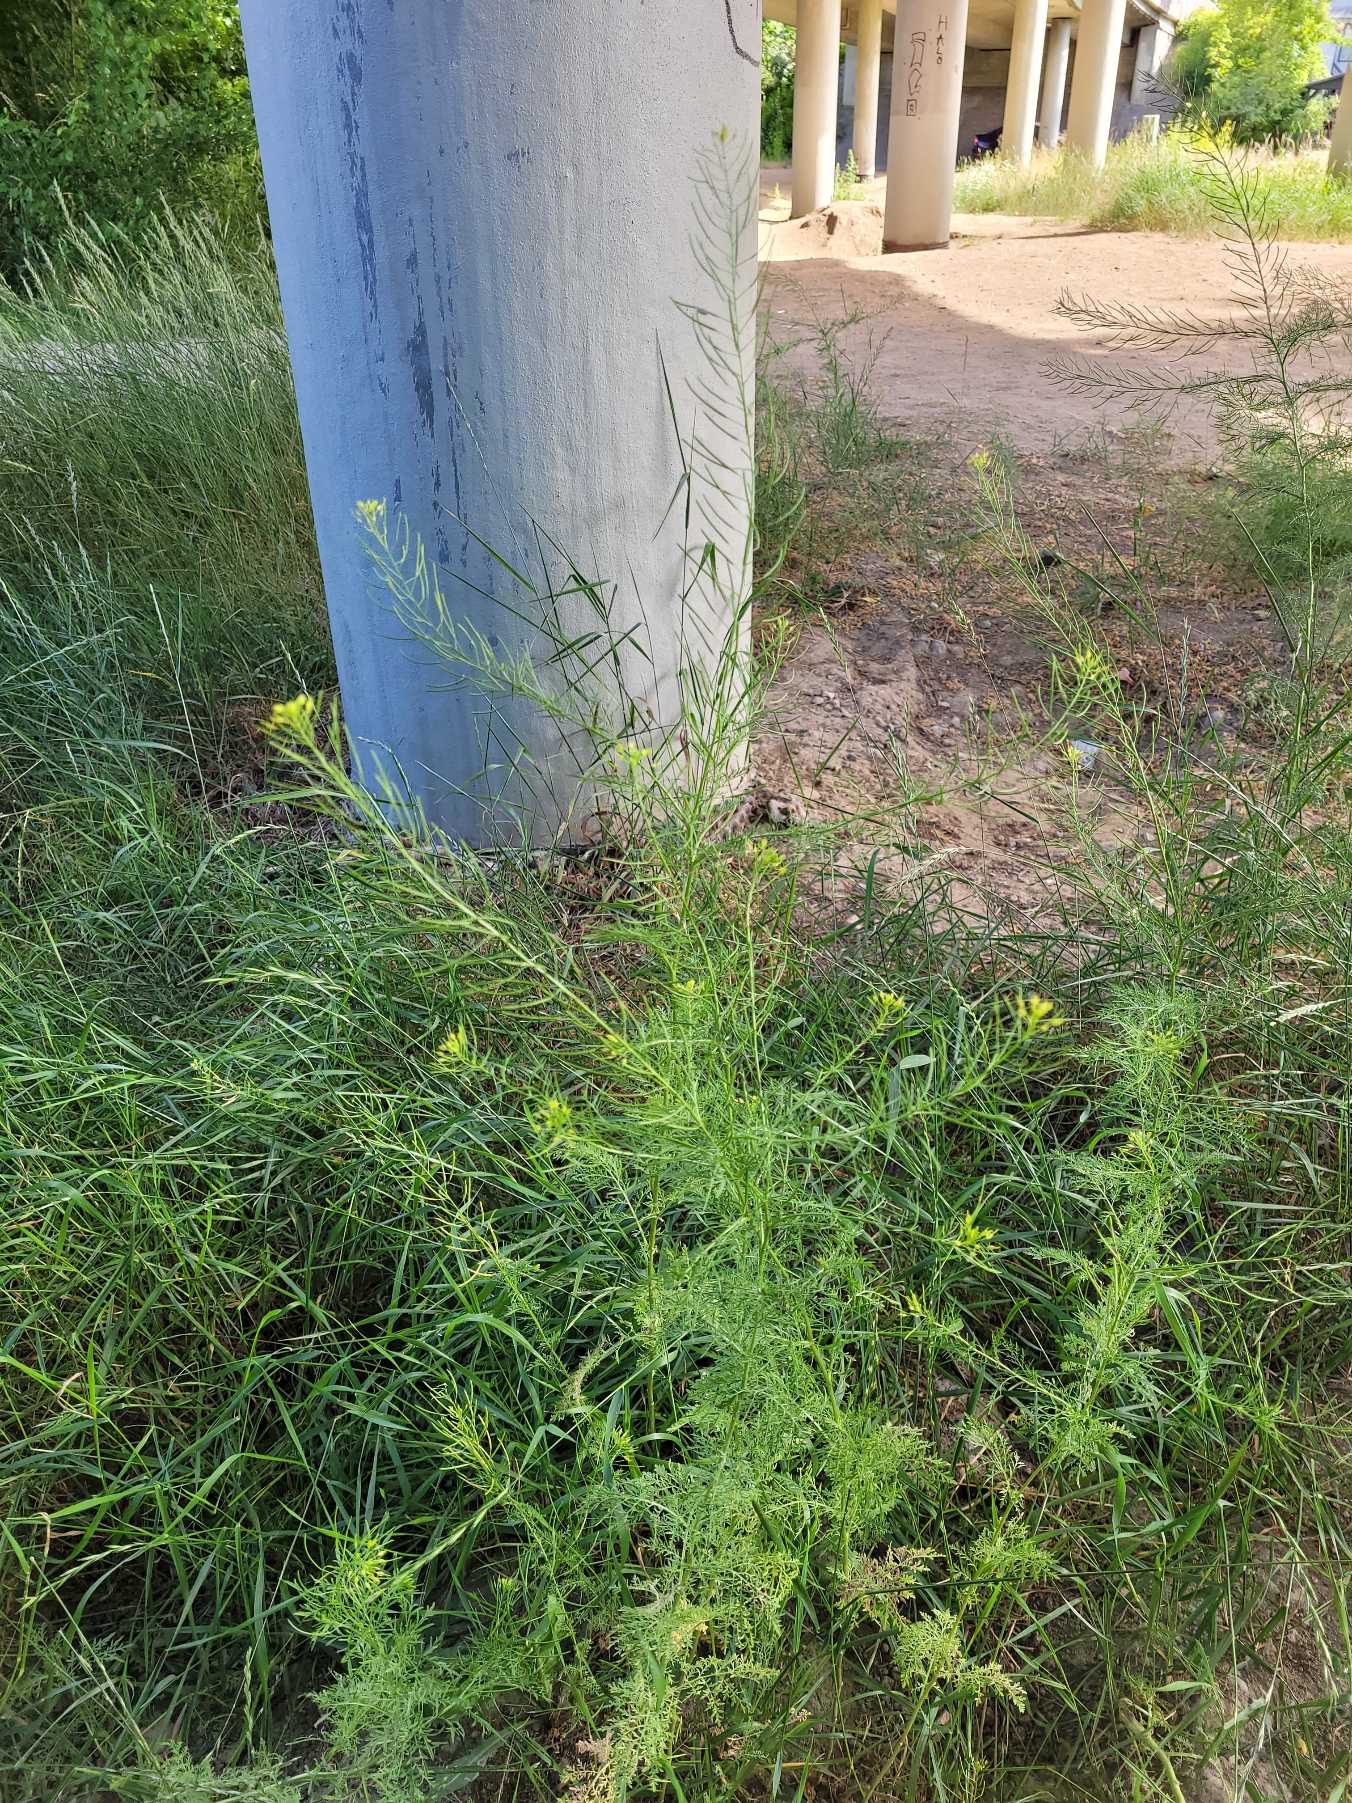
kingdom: Plantae
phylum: Tracheophyta
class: Magnoliopsida
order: Brassicales
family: Brassicaceae
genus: Descurainia
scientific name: Descurainia sophia
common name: Finbladet vejsennep
